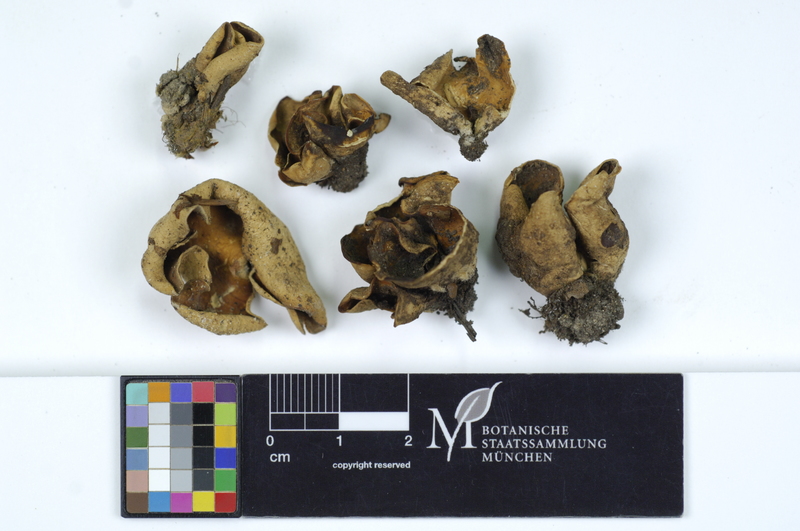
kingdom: Fungi
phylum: Ascomycota
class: Pezizomycetes
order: Pezizales
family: Otideaceae
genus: Otidea
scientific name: Otidea alutacea
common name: Tan ear
